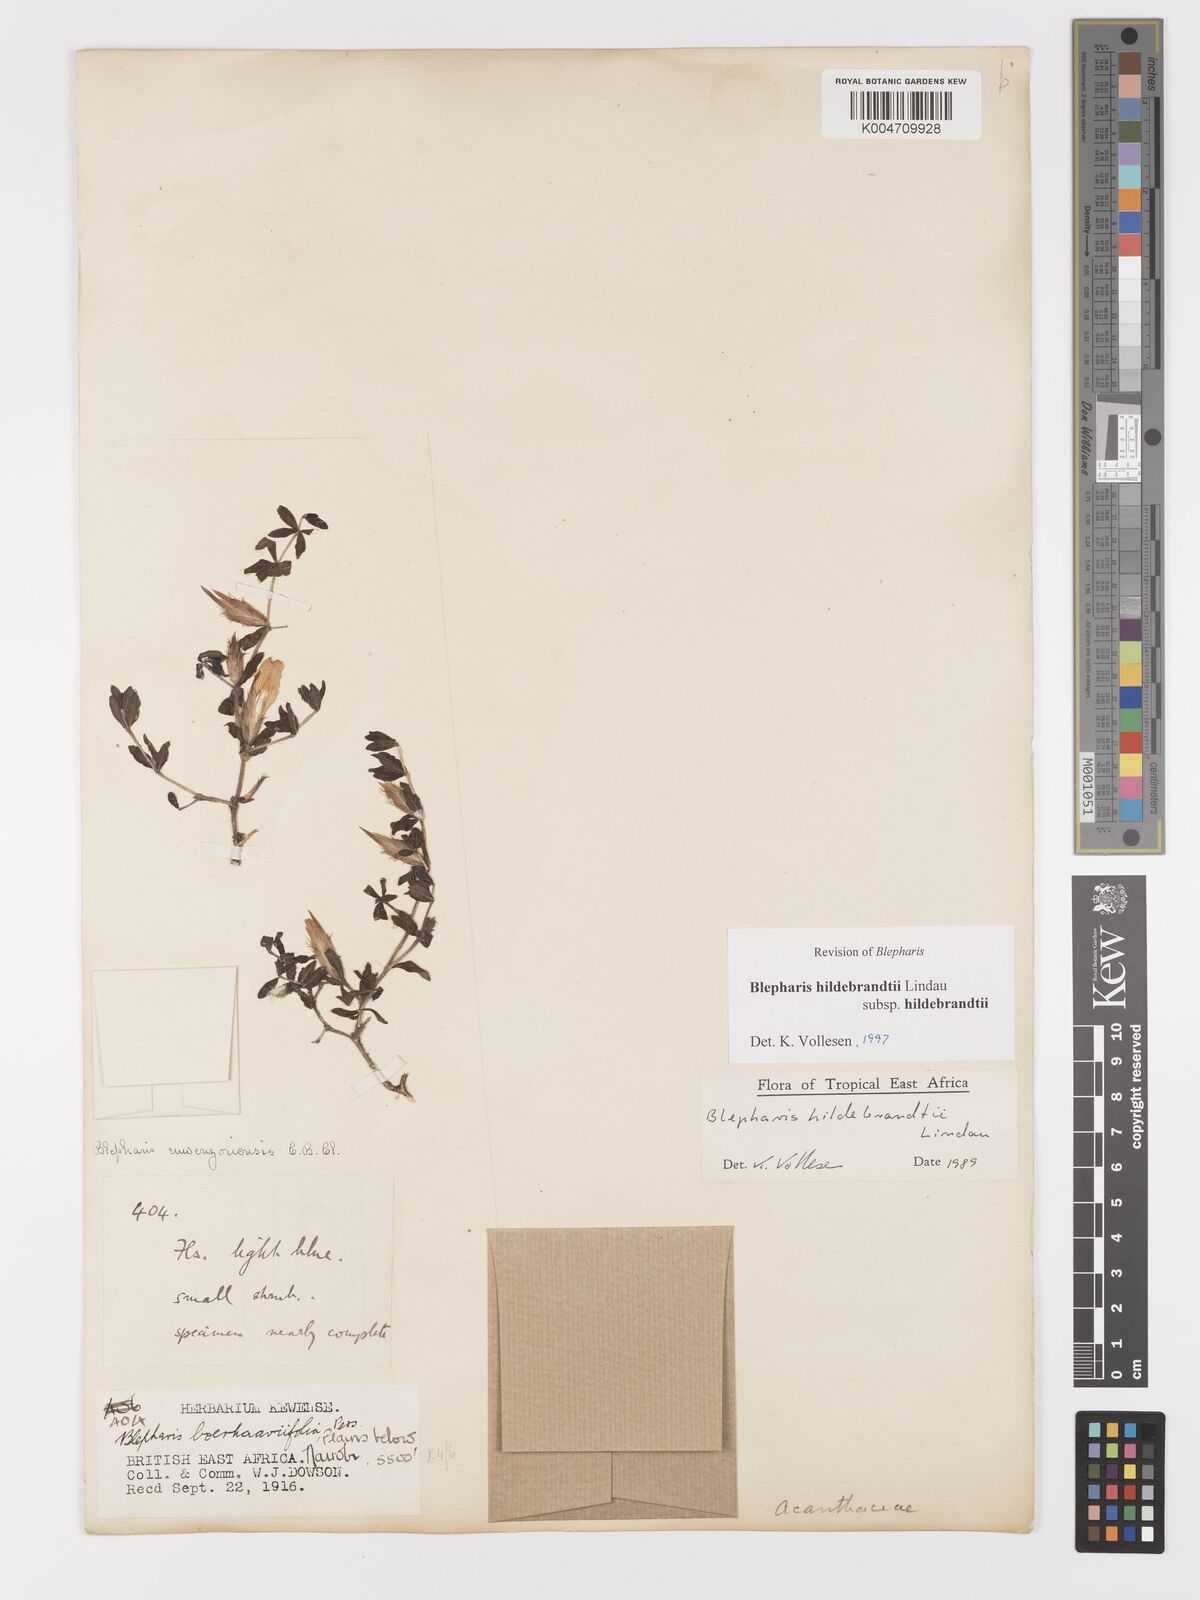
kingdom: Plantae
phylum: Tracheophyta
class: Magnoliopsida
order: Lamiales
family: Acanthaceae
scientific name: Acanthaceae
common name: Acanthaceae
